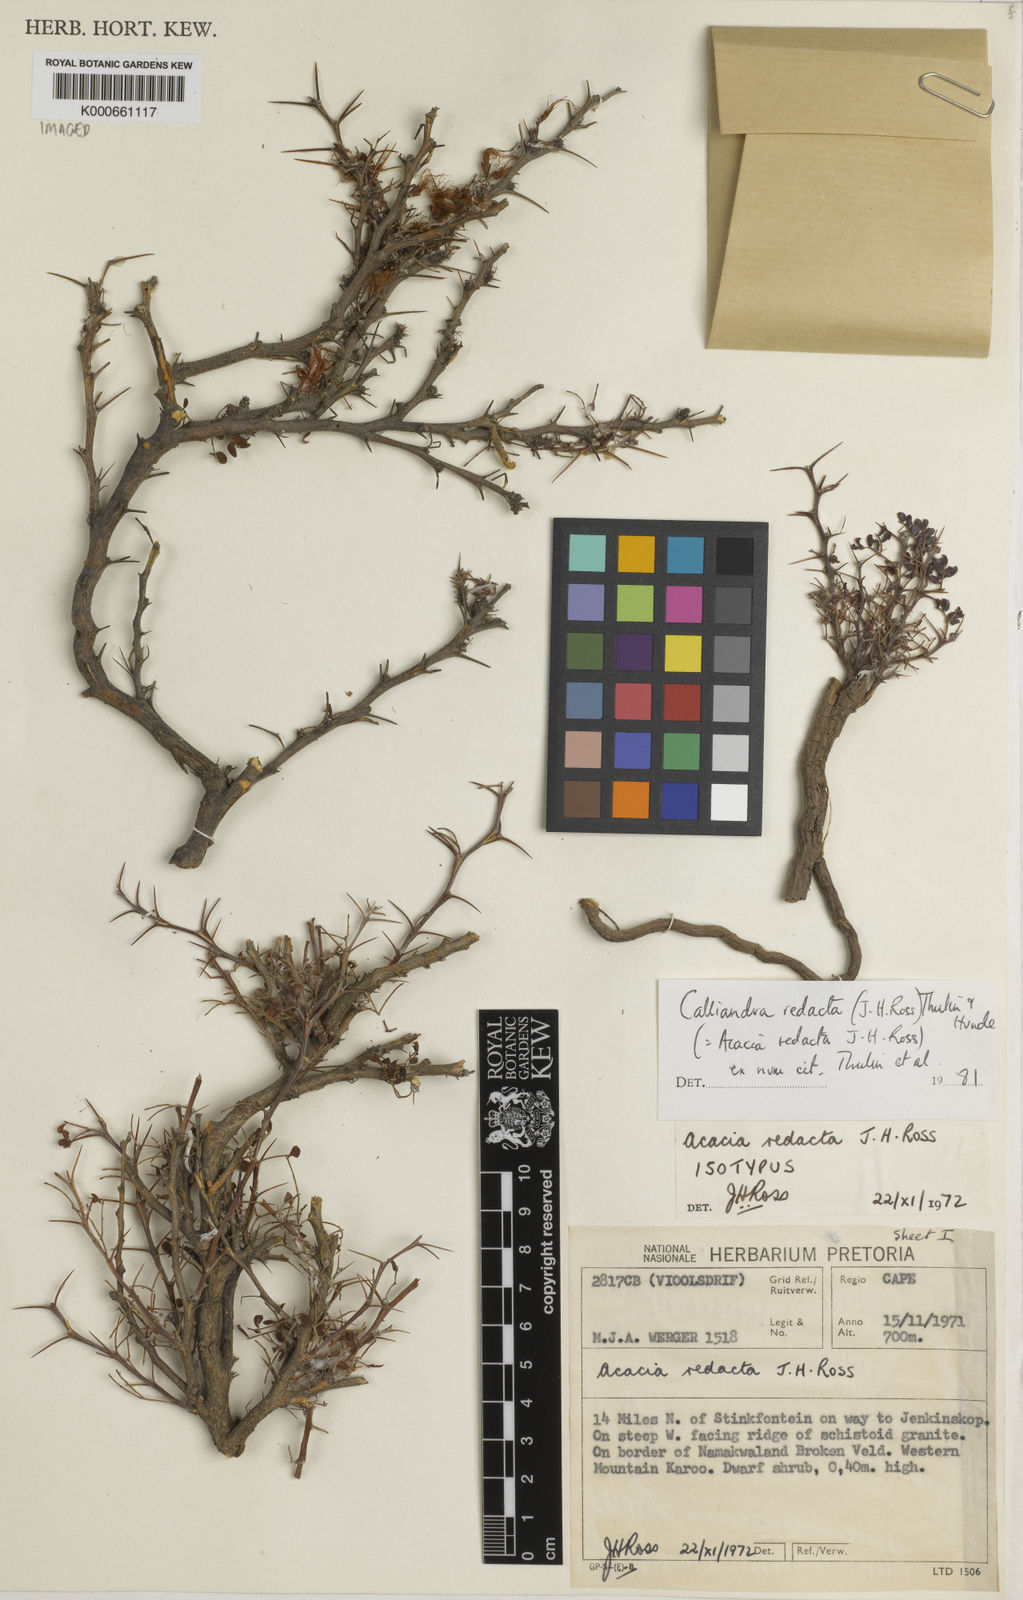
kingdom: Plantae
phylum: Tracheophyta
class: Magnoliopsida
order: Fabales
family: Fabaceae
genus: Afrocalliandra
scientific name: Afrocalliandra redacta
